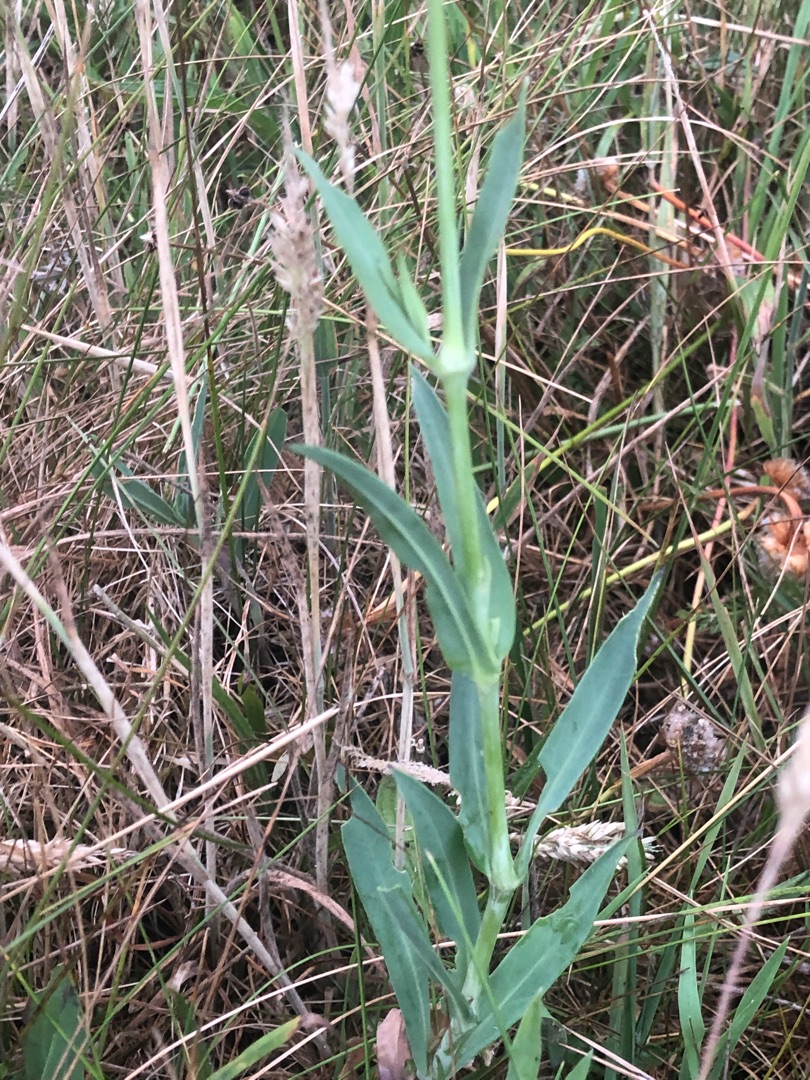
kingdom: Plantae
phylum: Tracheophyta
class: Magnoliopsida
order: Caryophyllales
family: Caryophyllaceae
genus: Silene
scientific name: Silene vulgaris
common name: Blæresmælde
